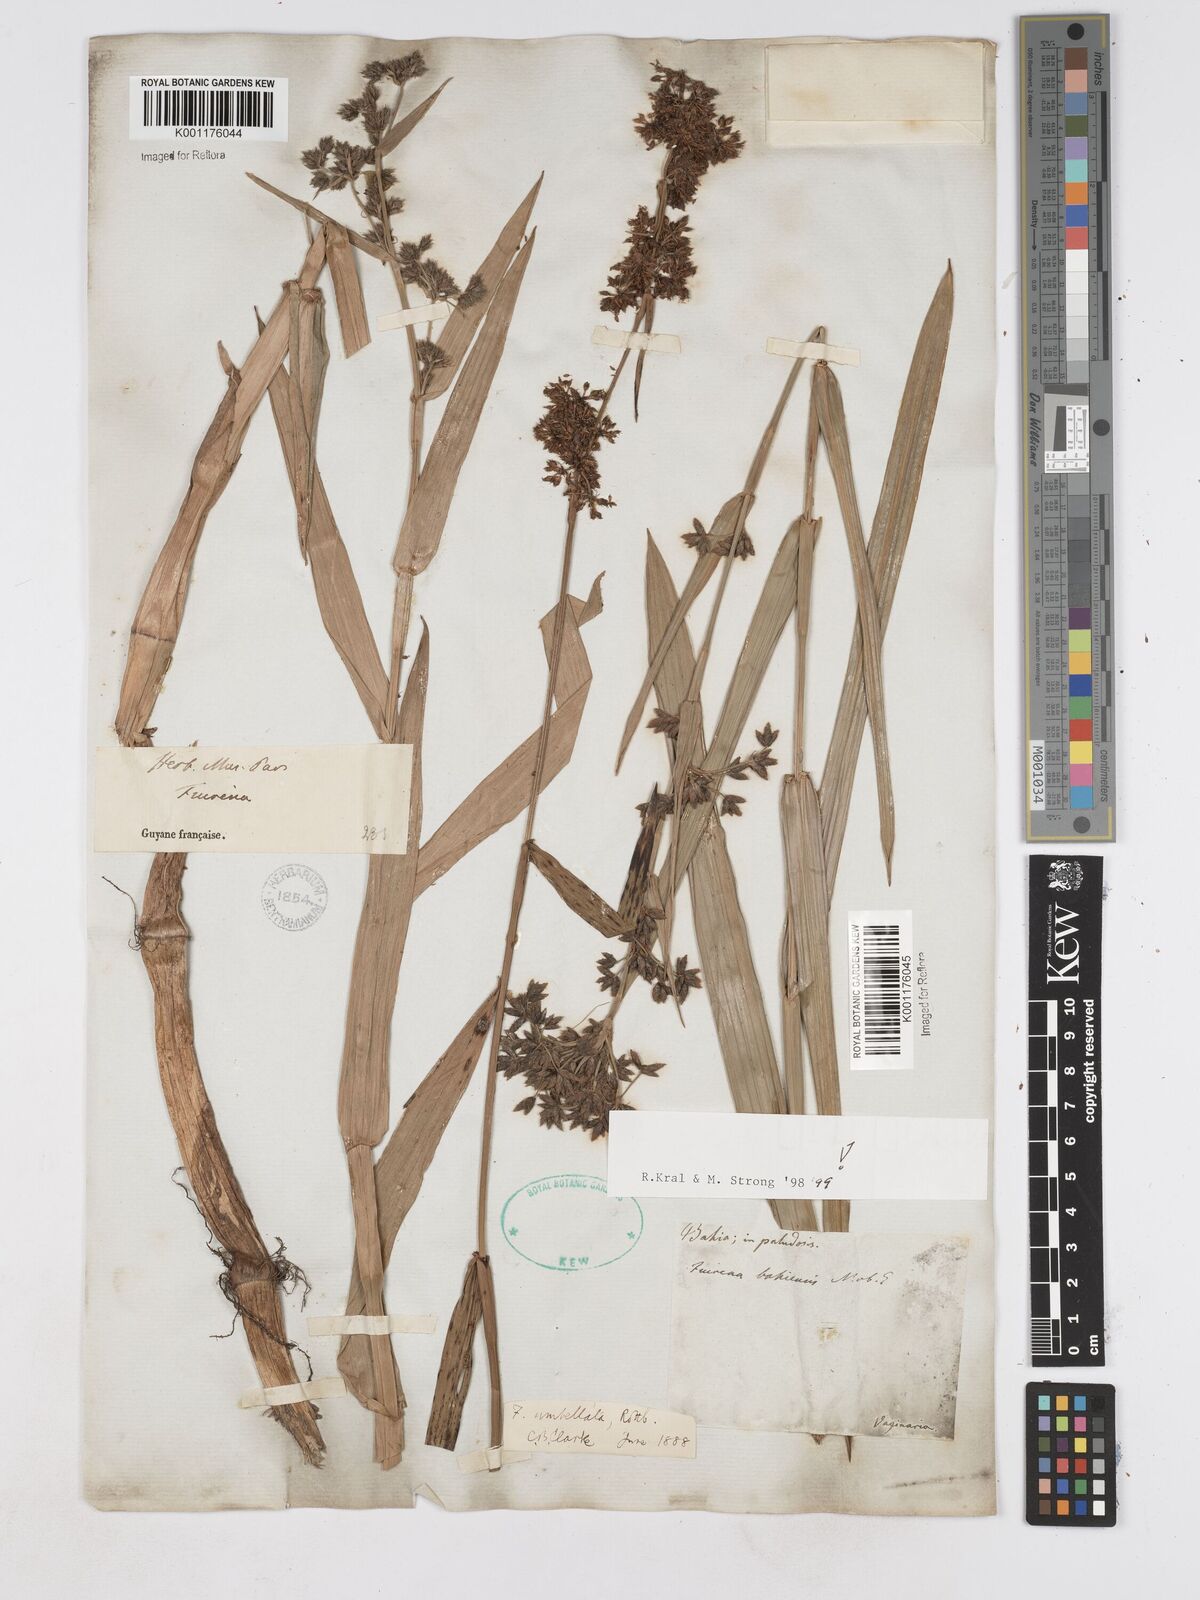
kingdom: Plantae
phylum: Tracheophyta
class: Liliopsida
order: Poales
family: Cyperaceae
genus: Fuirena
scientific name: Fuirena umbellata
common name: Yefen
